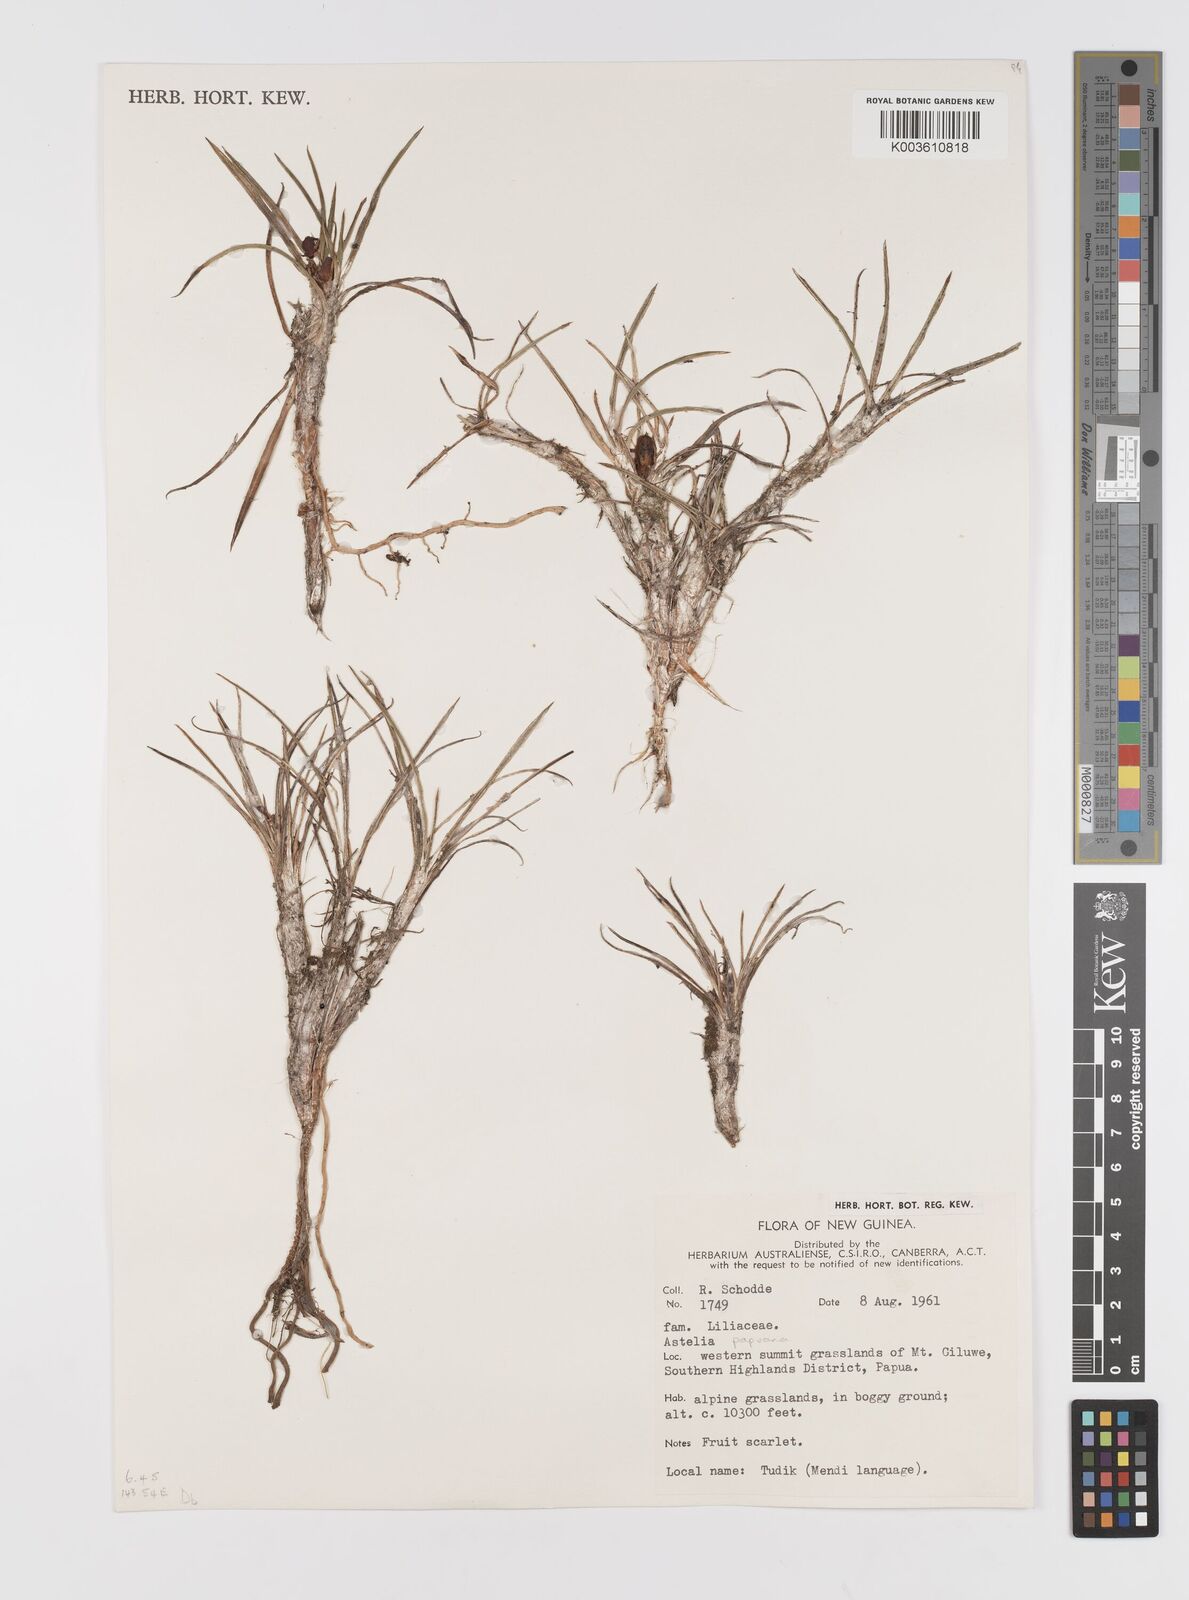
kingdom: Plantae
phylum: Tracheophyta
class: Liliopsida
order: Asparagales
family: Asteliaceae
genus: Astelia
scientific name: Astelia papuana
